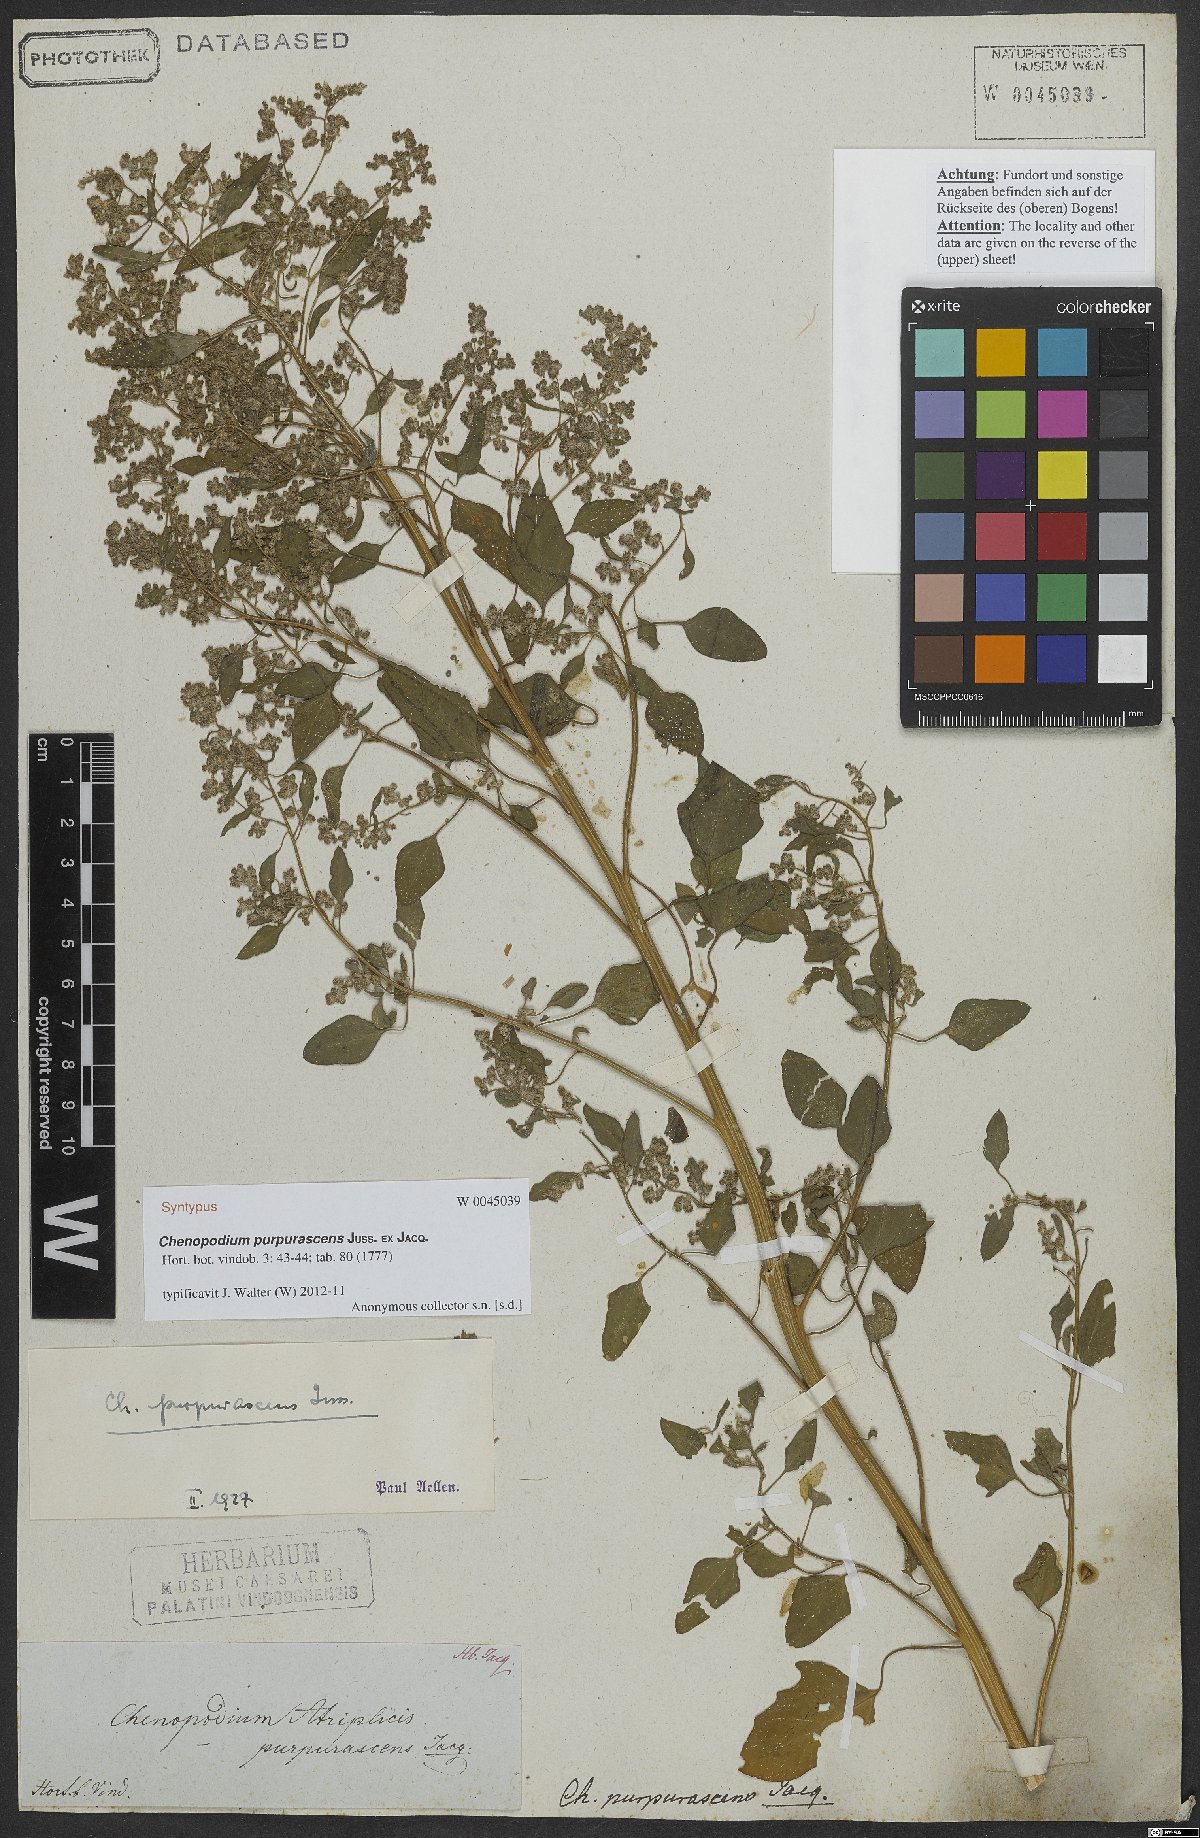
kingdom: Plantae
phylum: Tracheophyta
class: Magnoliopsida
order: Caryophyllales
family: Amaranthaceae
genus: Chenopodium
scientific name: Chenopodium quinoa
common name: Quinoa
